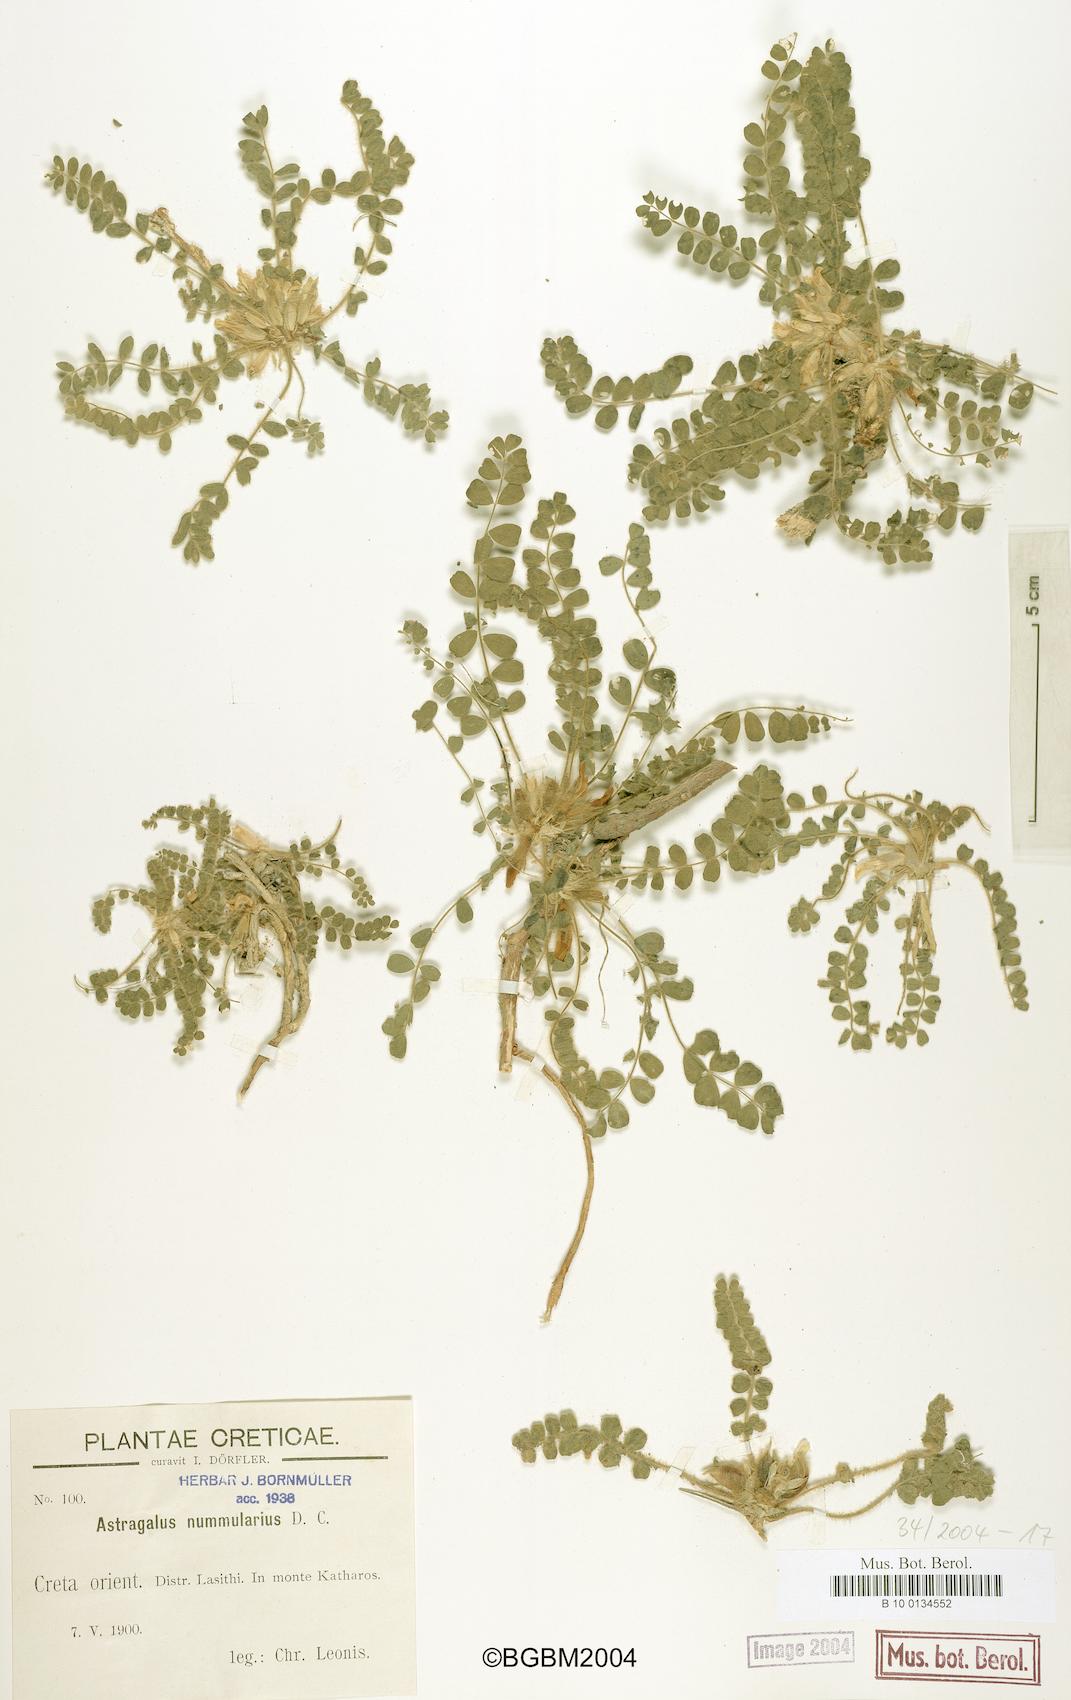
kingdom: Plantae
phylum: Tracheophyta
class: Magnoliopsida
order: Fabales
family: Fabaceae
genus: Astragalus
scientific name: Astragalus nummularius
